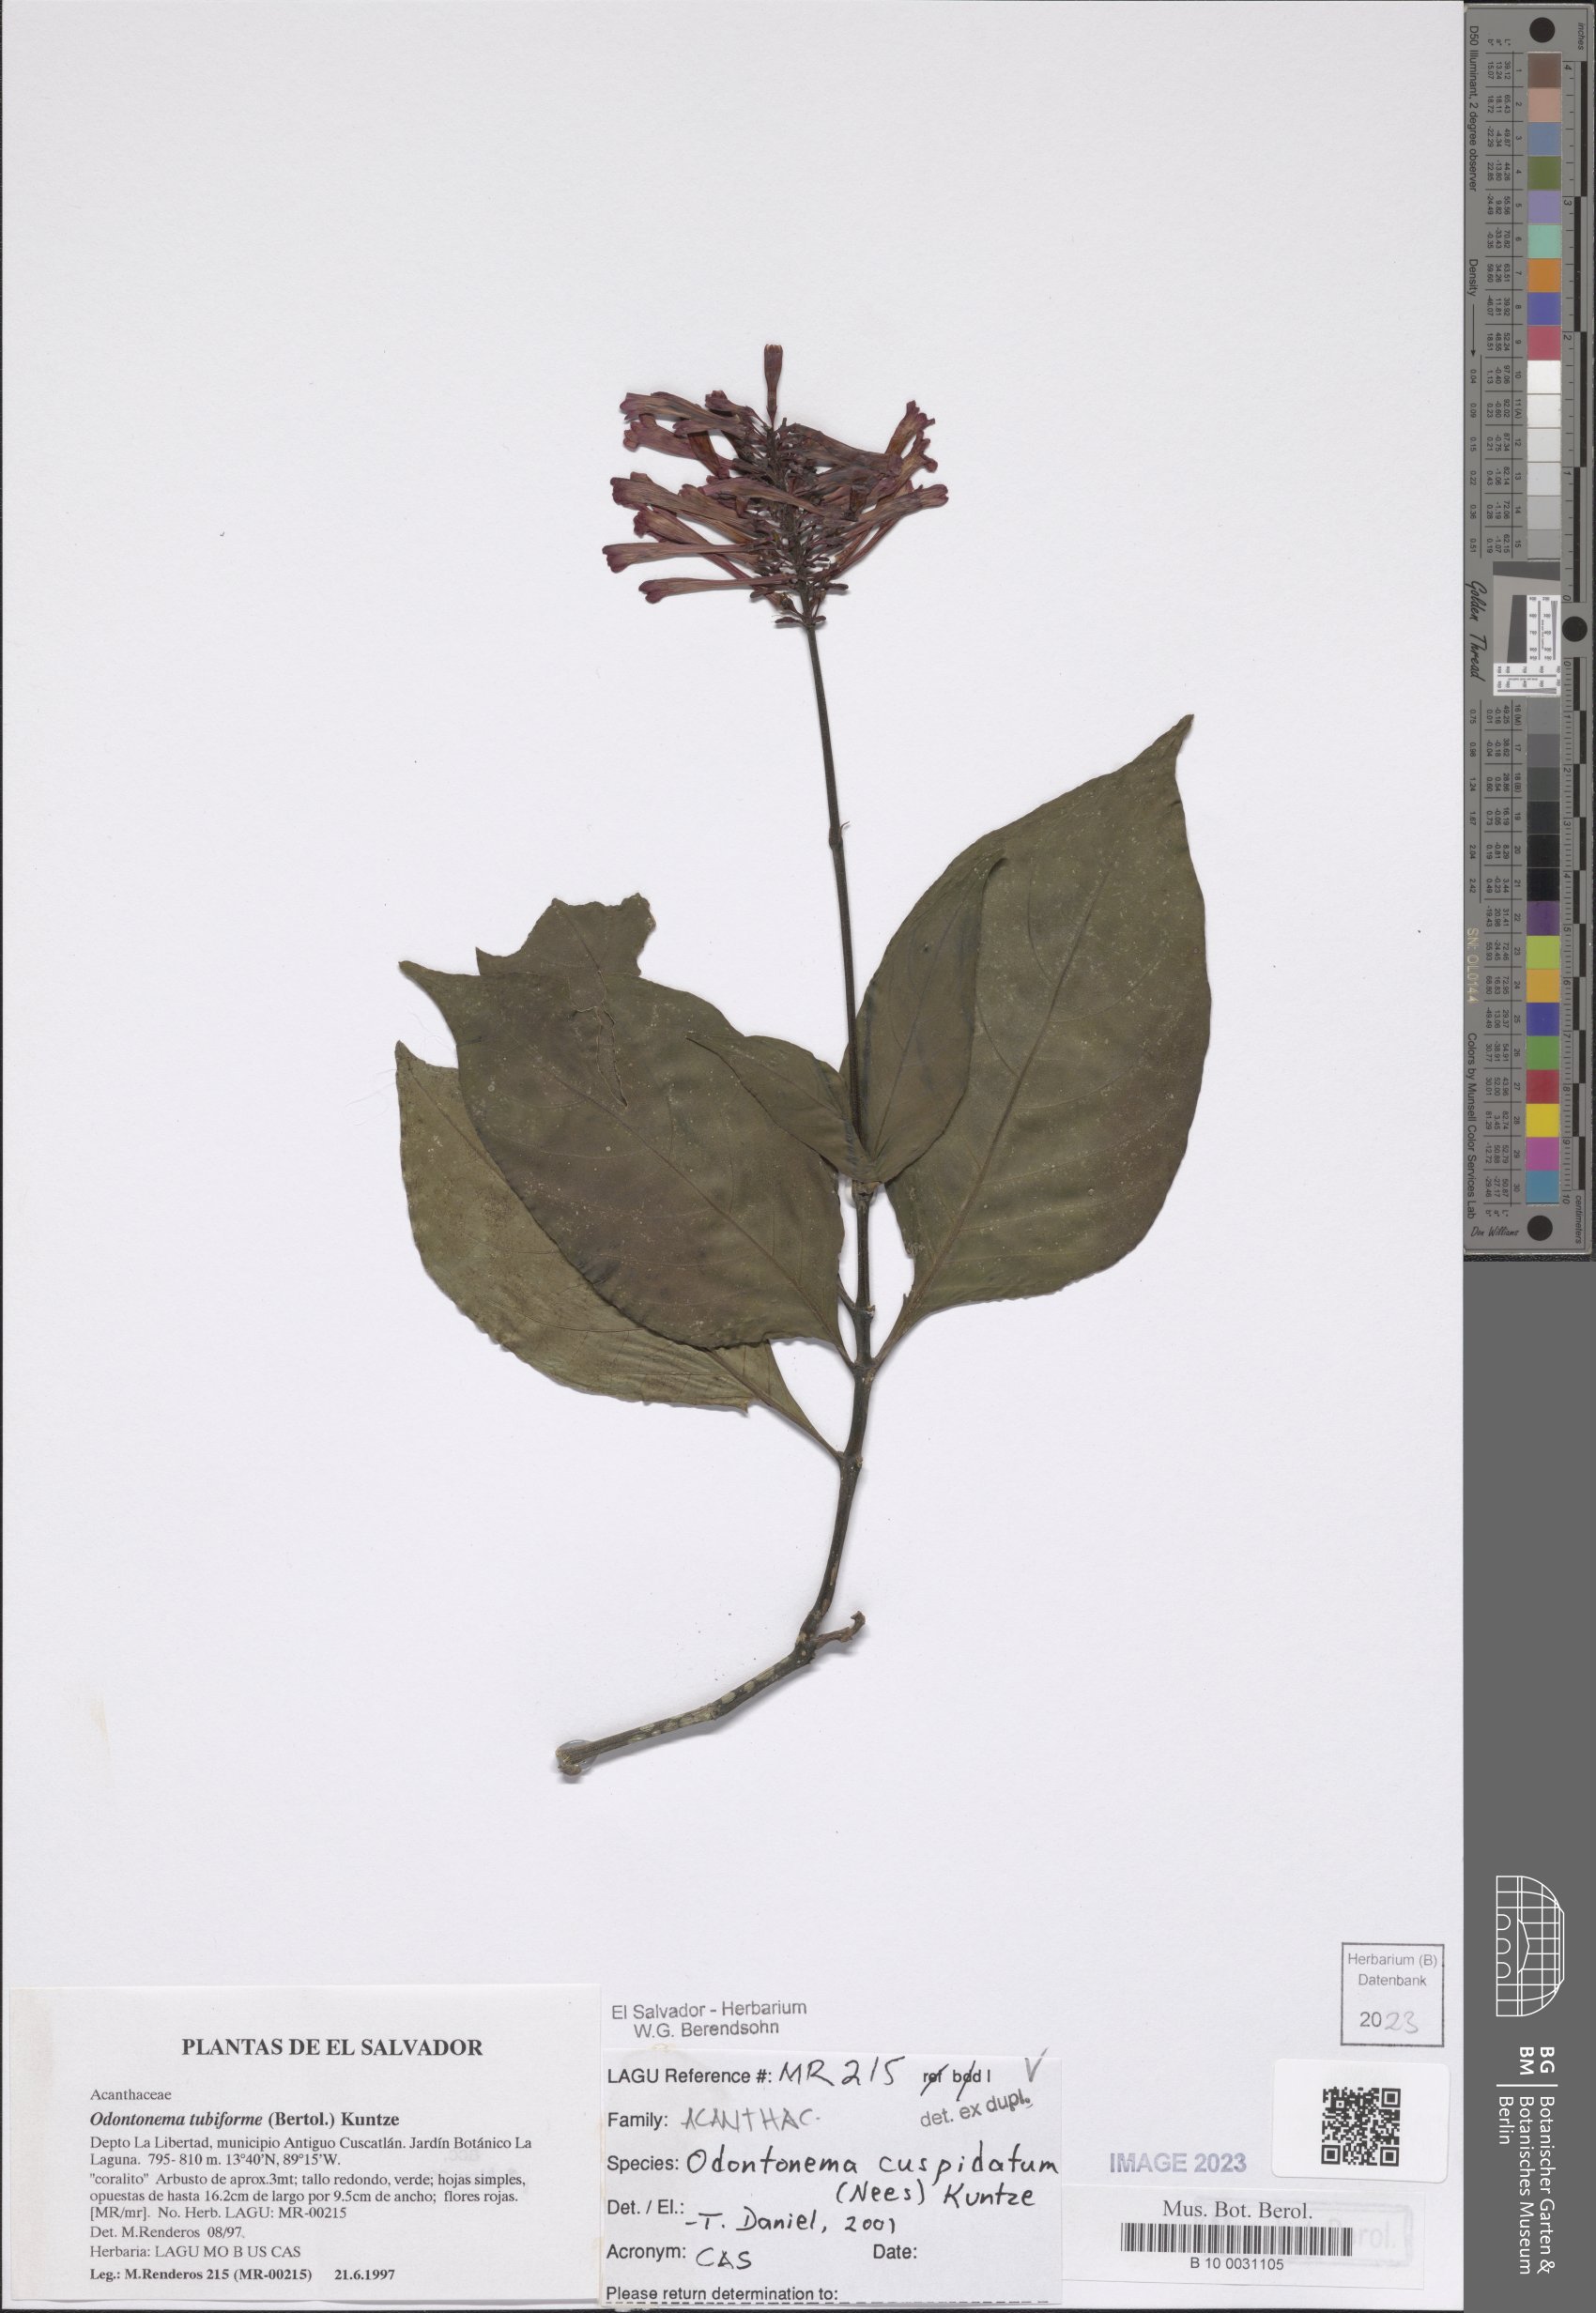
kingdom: Plantae
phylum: Tracheophyta
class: Magnoliopsida
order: Lamiales
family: Acanthaceae
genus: Odontonema
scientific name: Odontonema cuspidatum
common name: Mottled toothedthread
